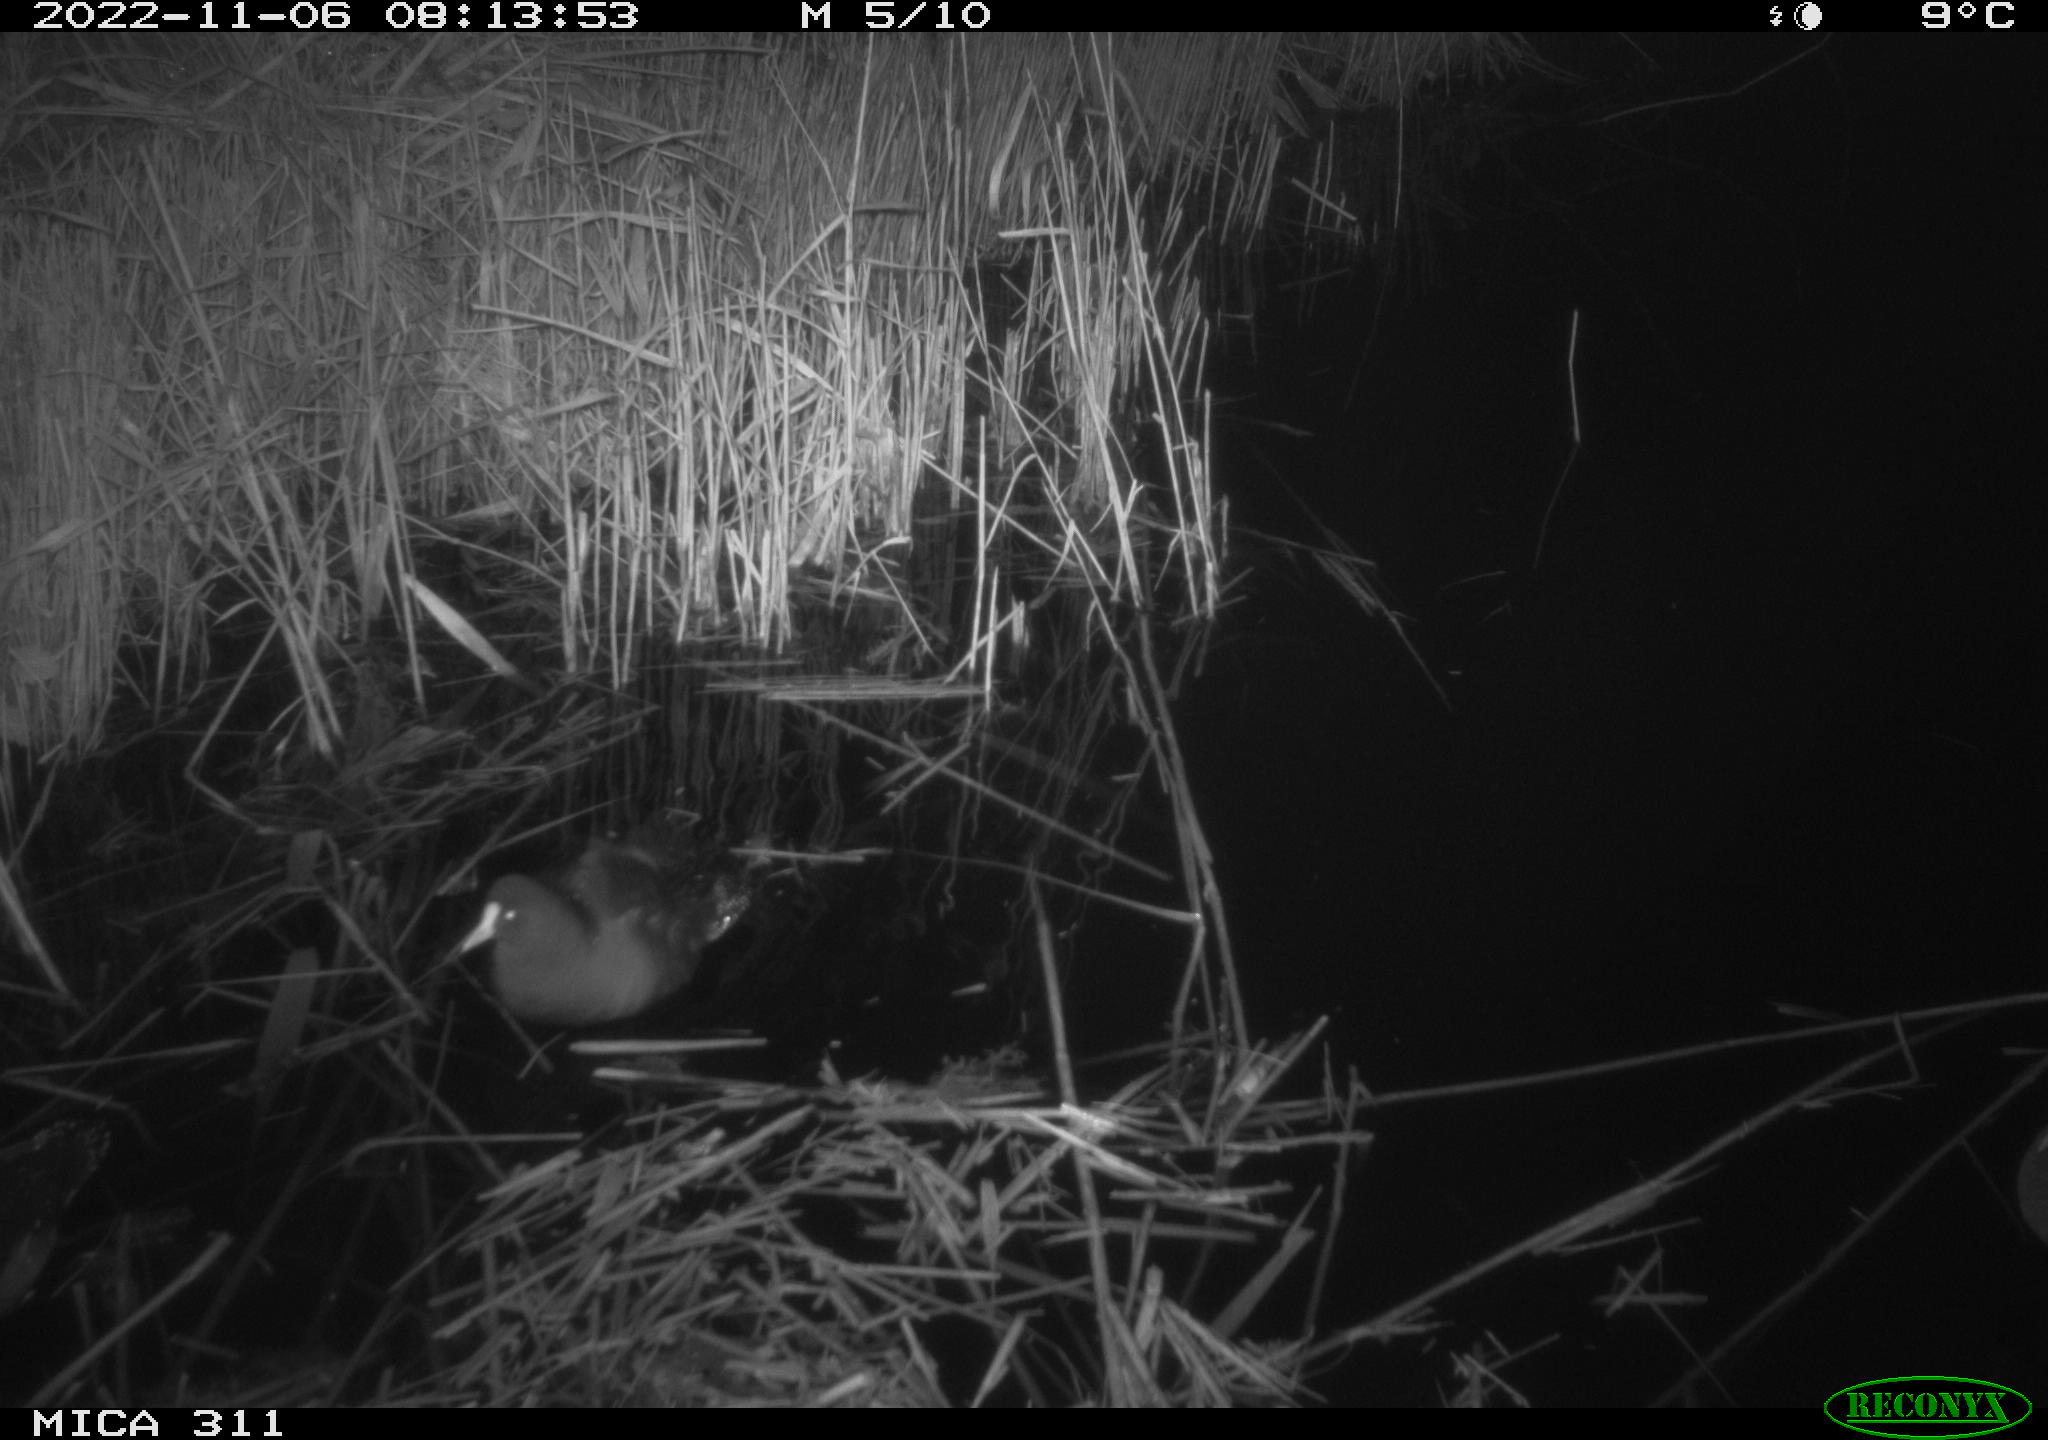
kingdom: Animalia
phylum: Chordata
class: Aves
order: Gruiformes
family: Rallidae
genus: Gallinula
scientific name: Gallinula chloropus
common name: Common moorhen
